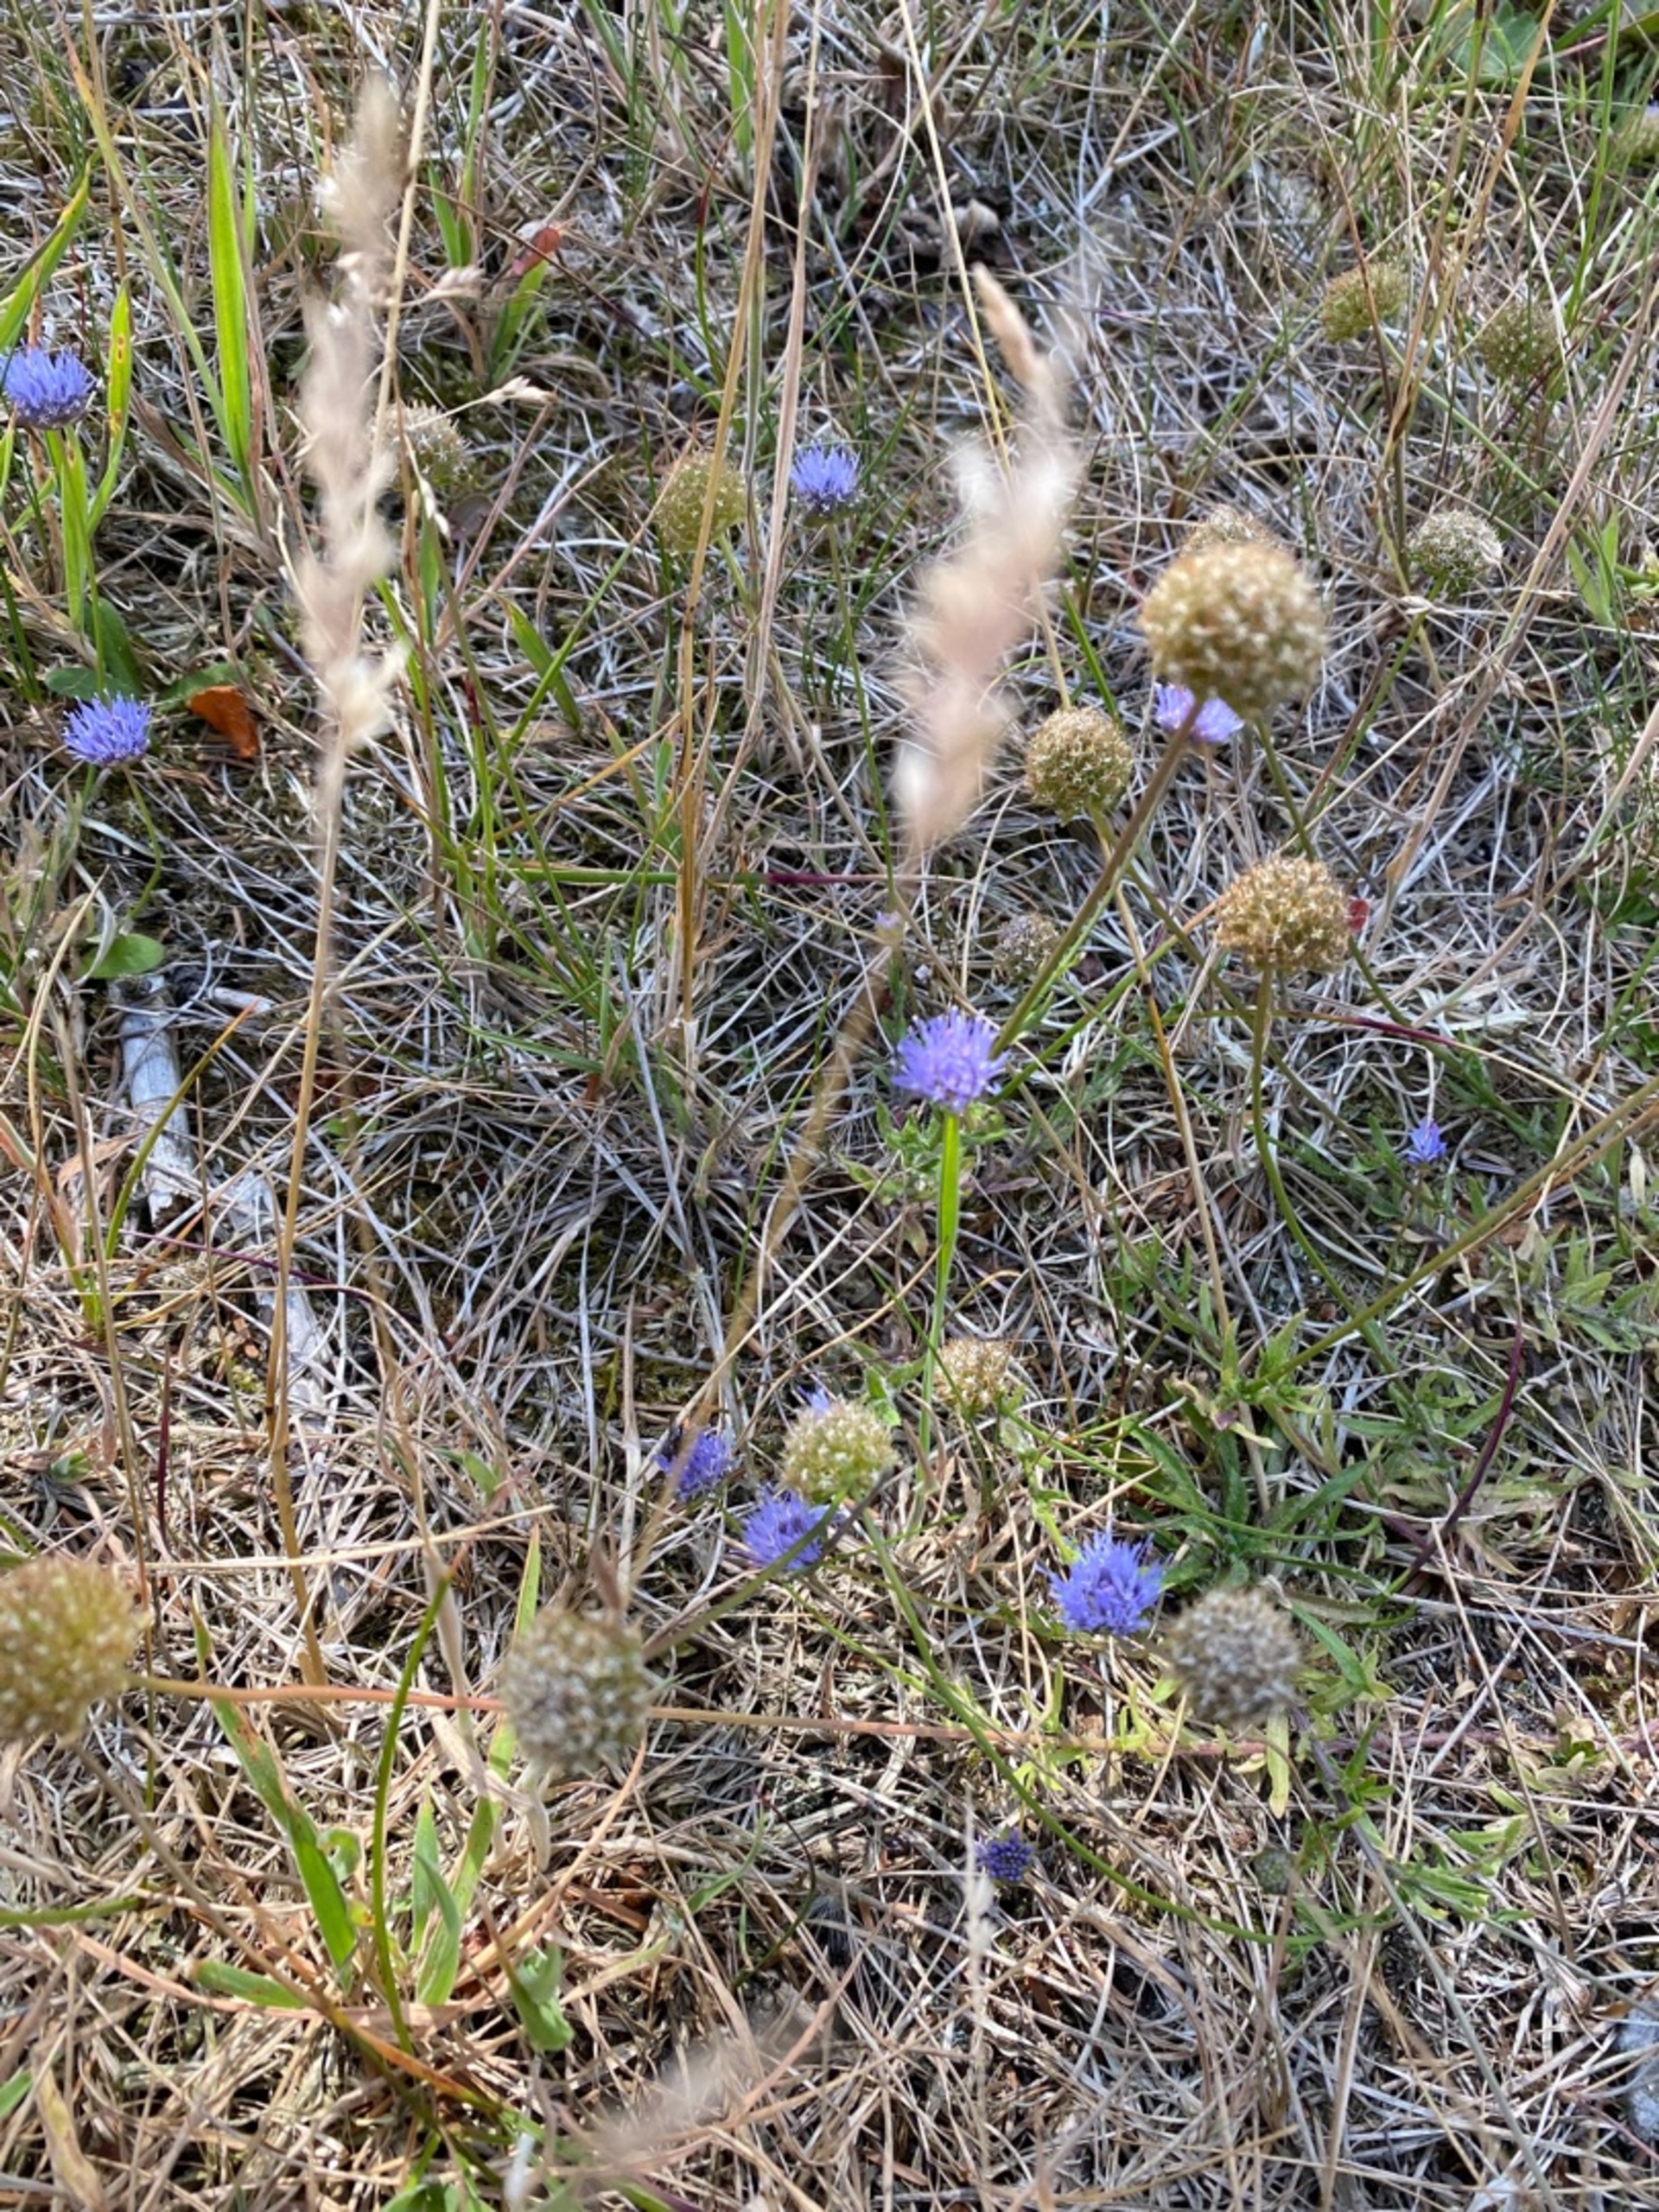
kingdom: Plantae
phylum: Tracheophyta
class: Magnoliopsida
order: Asterales
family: Campanulaceae
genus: Jasione
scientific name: Jasione montana
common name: Blåmunke
